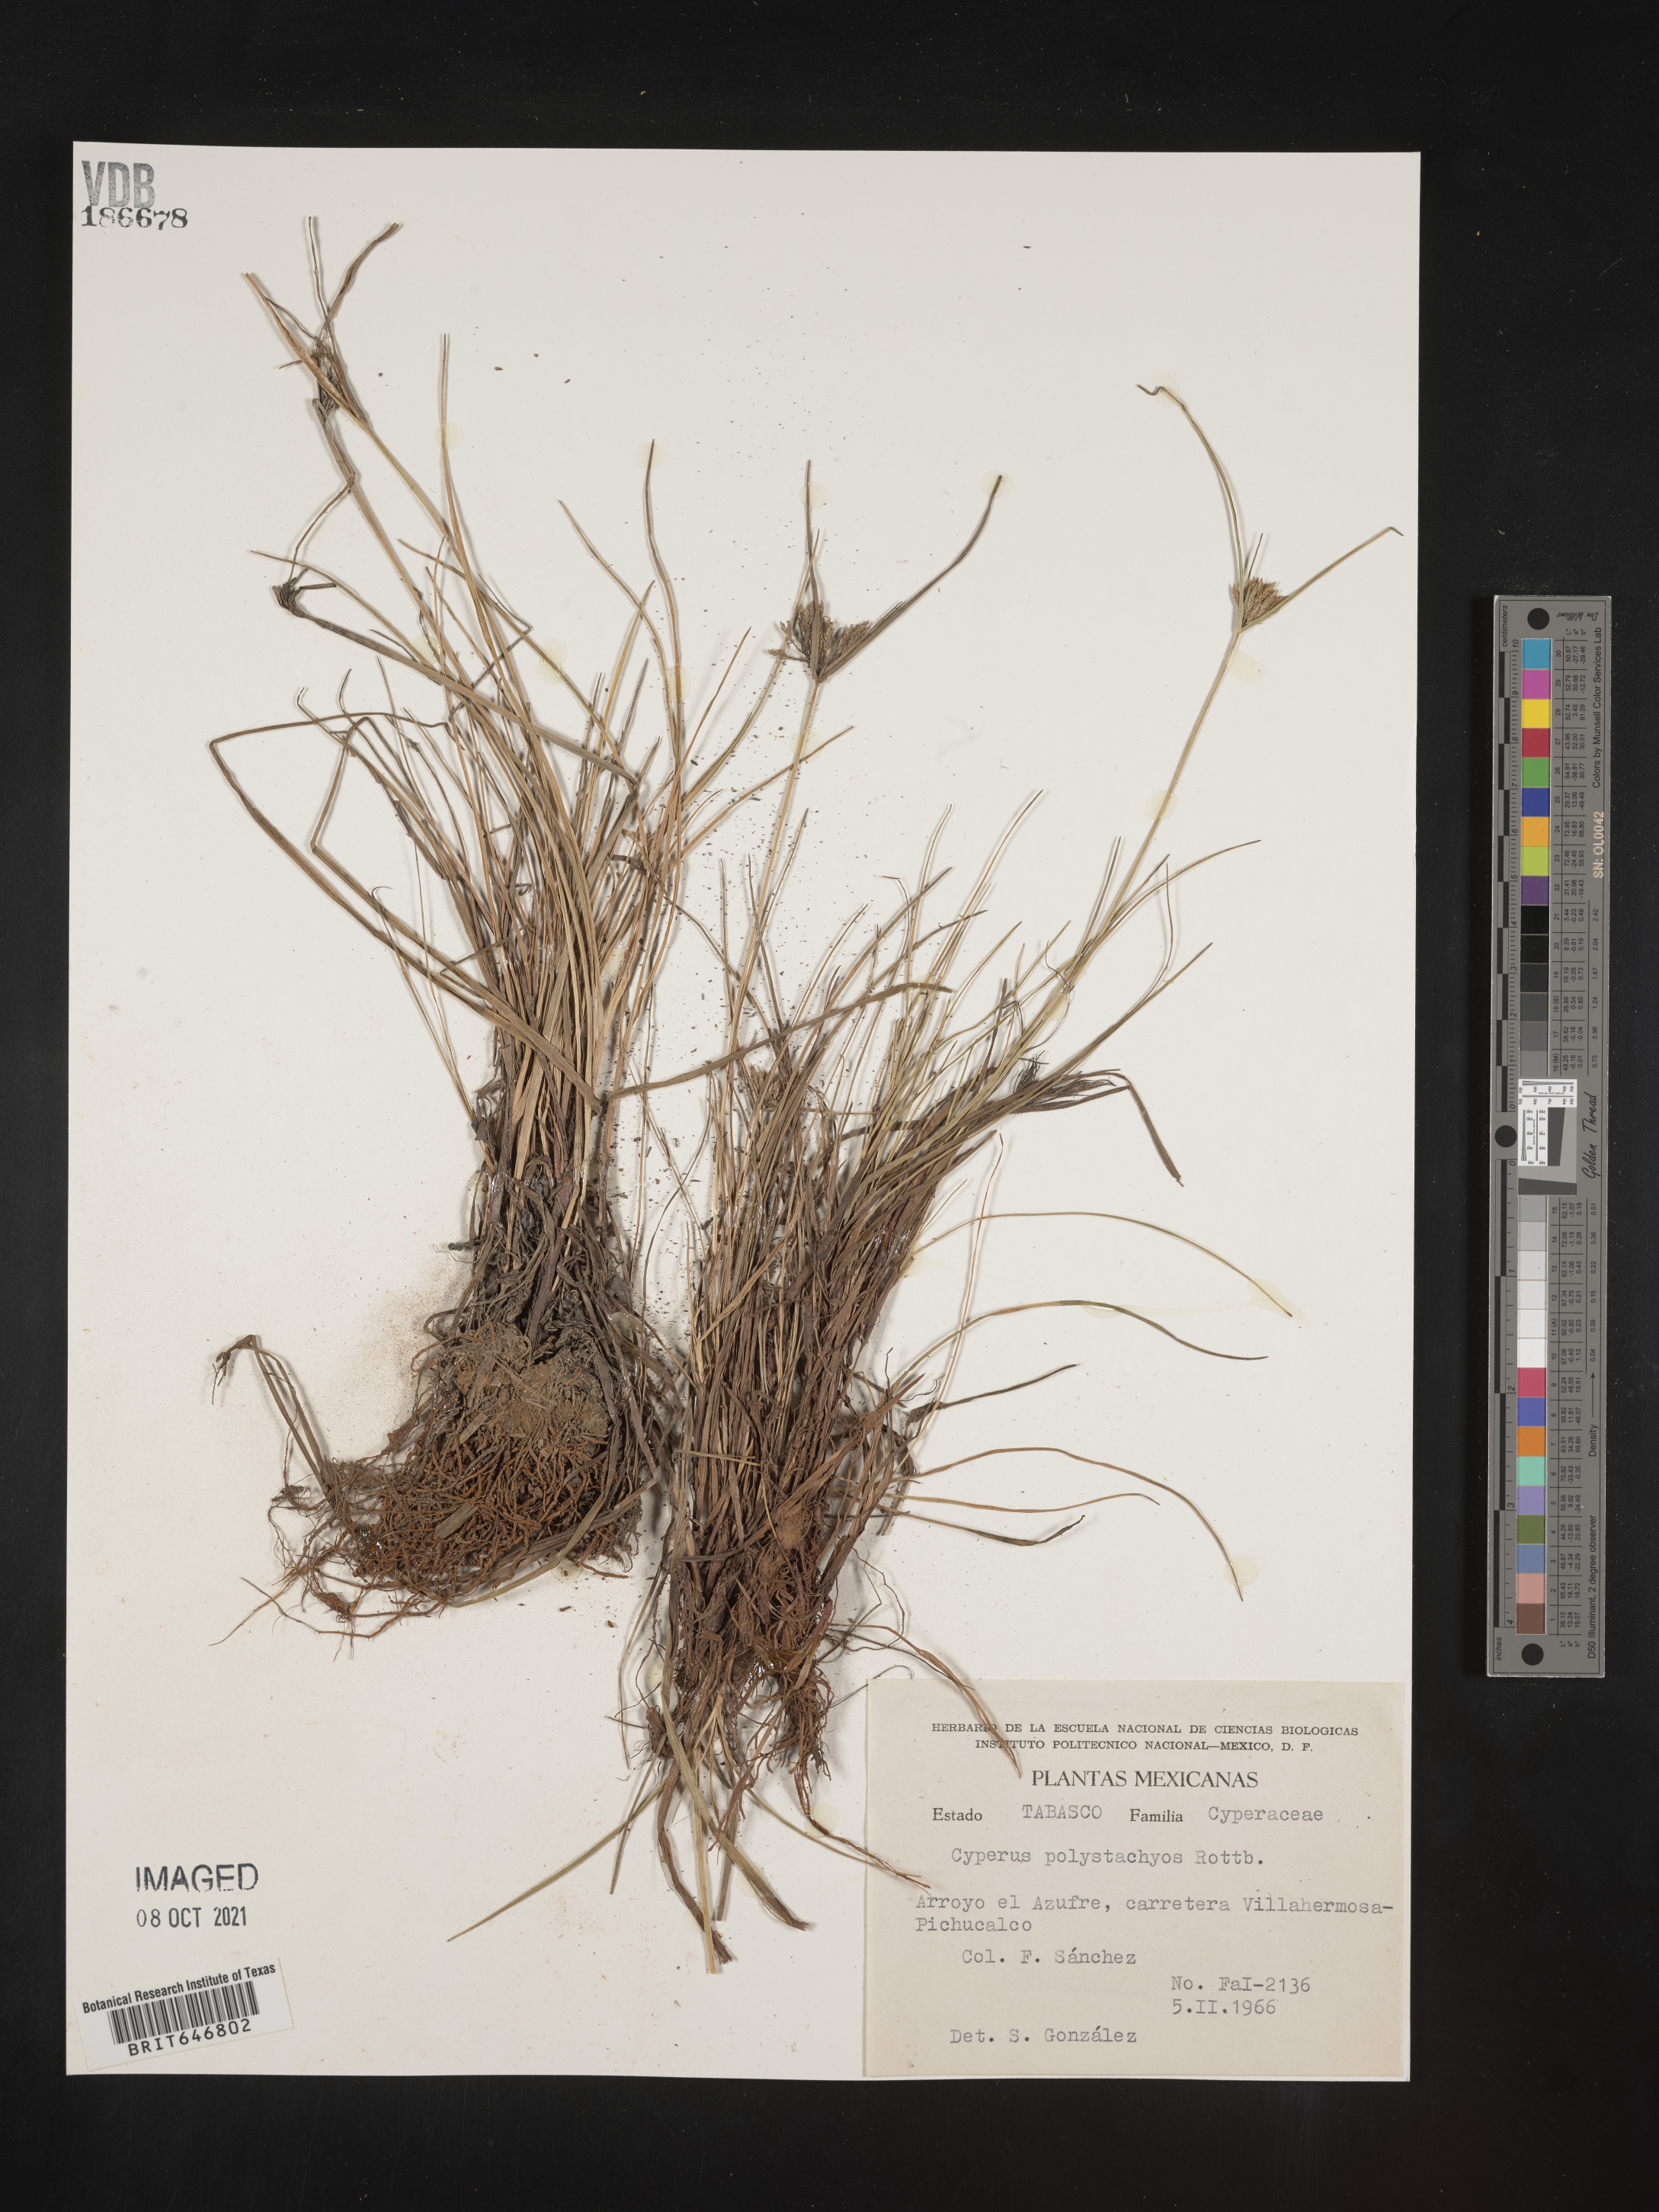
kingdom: Plantae
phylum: Tracheophyta
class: Liliopsida
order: Poales
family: Cyperaceae
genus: Cyperus
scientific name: Cyperus
